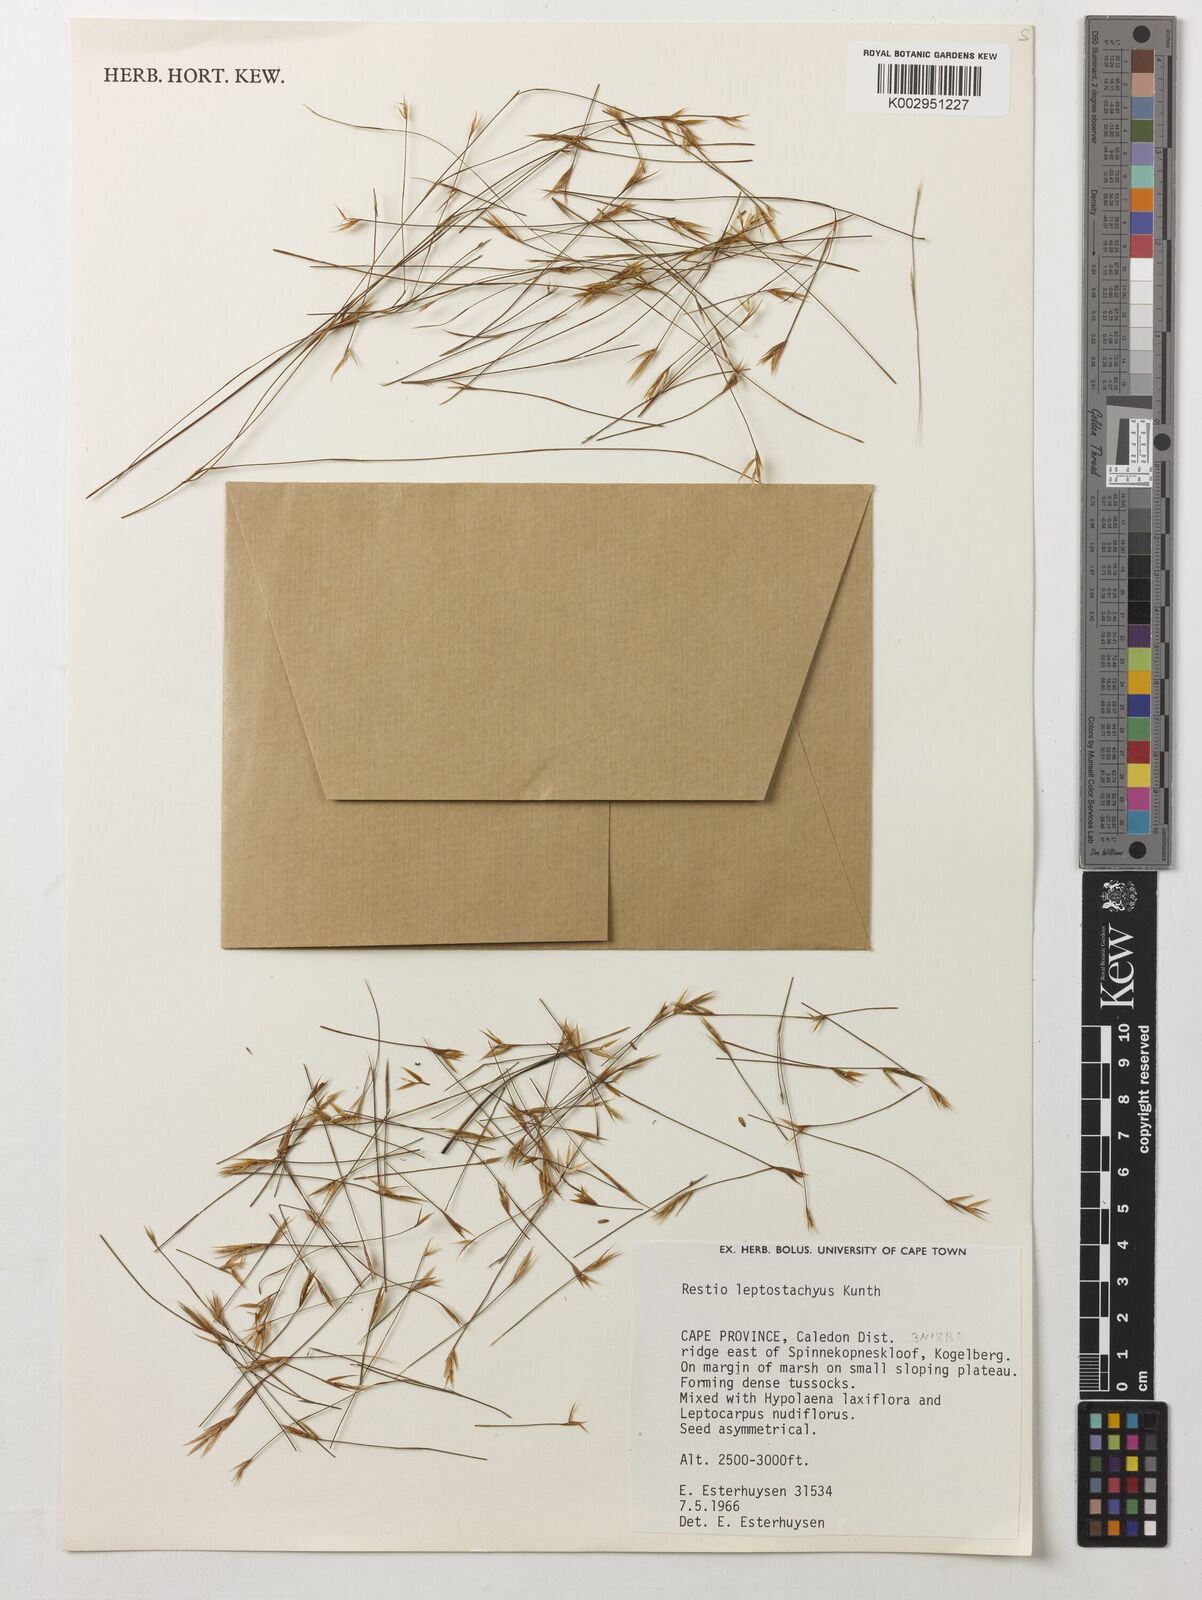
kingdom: Plantae
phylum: Tracheophyta
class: Liliopsida
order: Poales
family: Restionaceae
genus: Restio
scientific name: Restio leptostachyus
